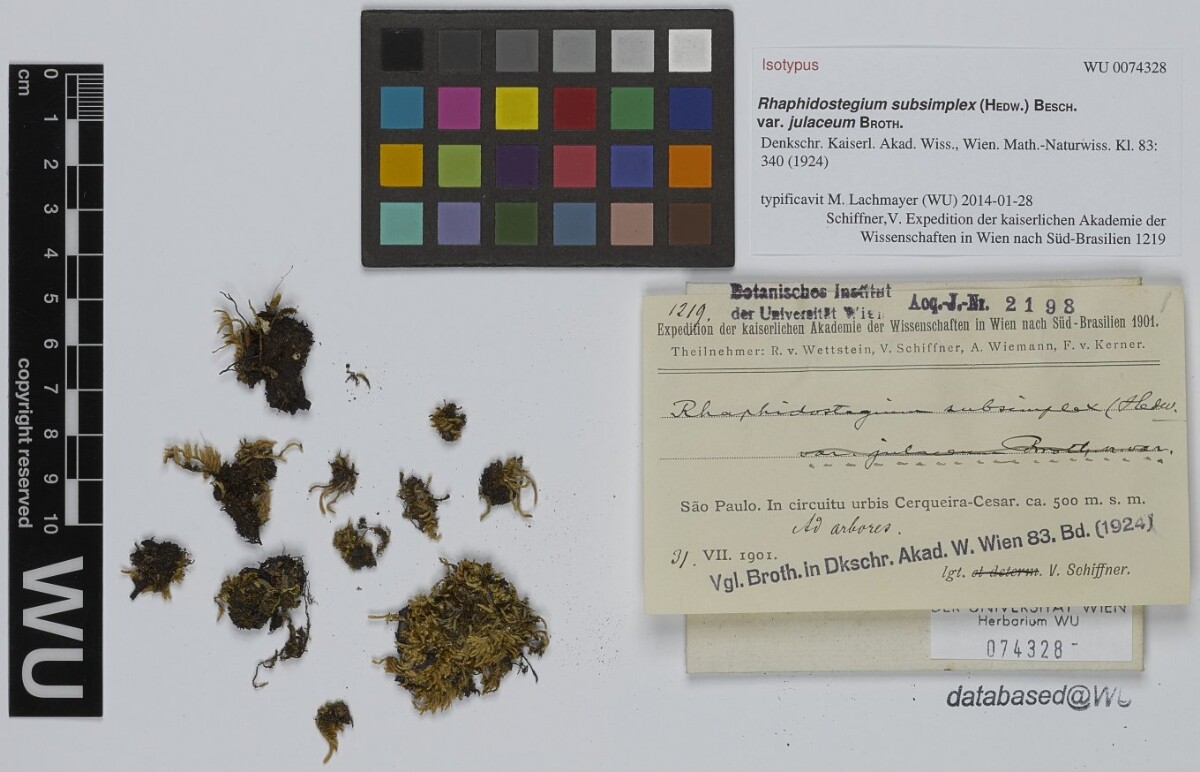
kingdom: Plantae
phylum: Bryophyta
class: Bryopsida
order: Hypnales
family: Sematophyllaceae
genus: Microcalpe
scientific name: Microcalpe subsimplex
